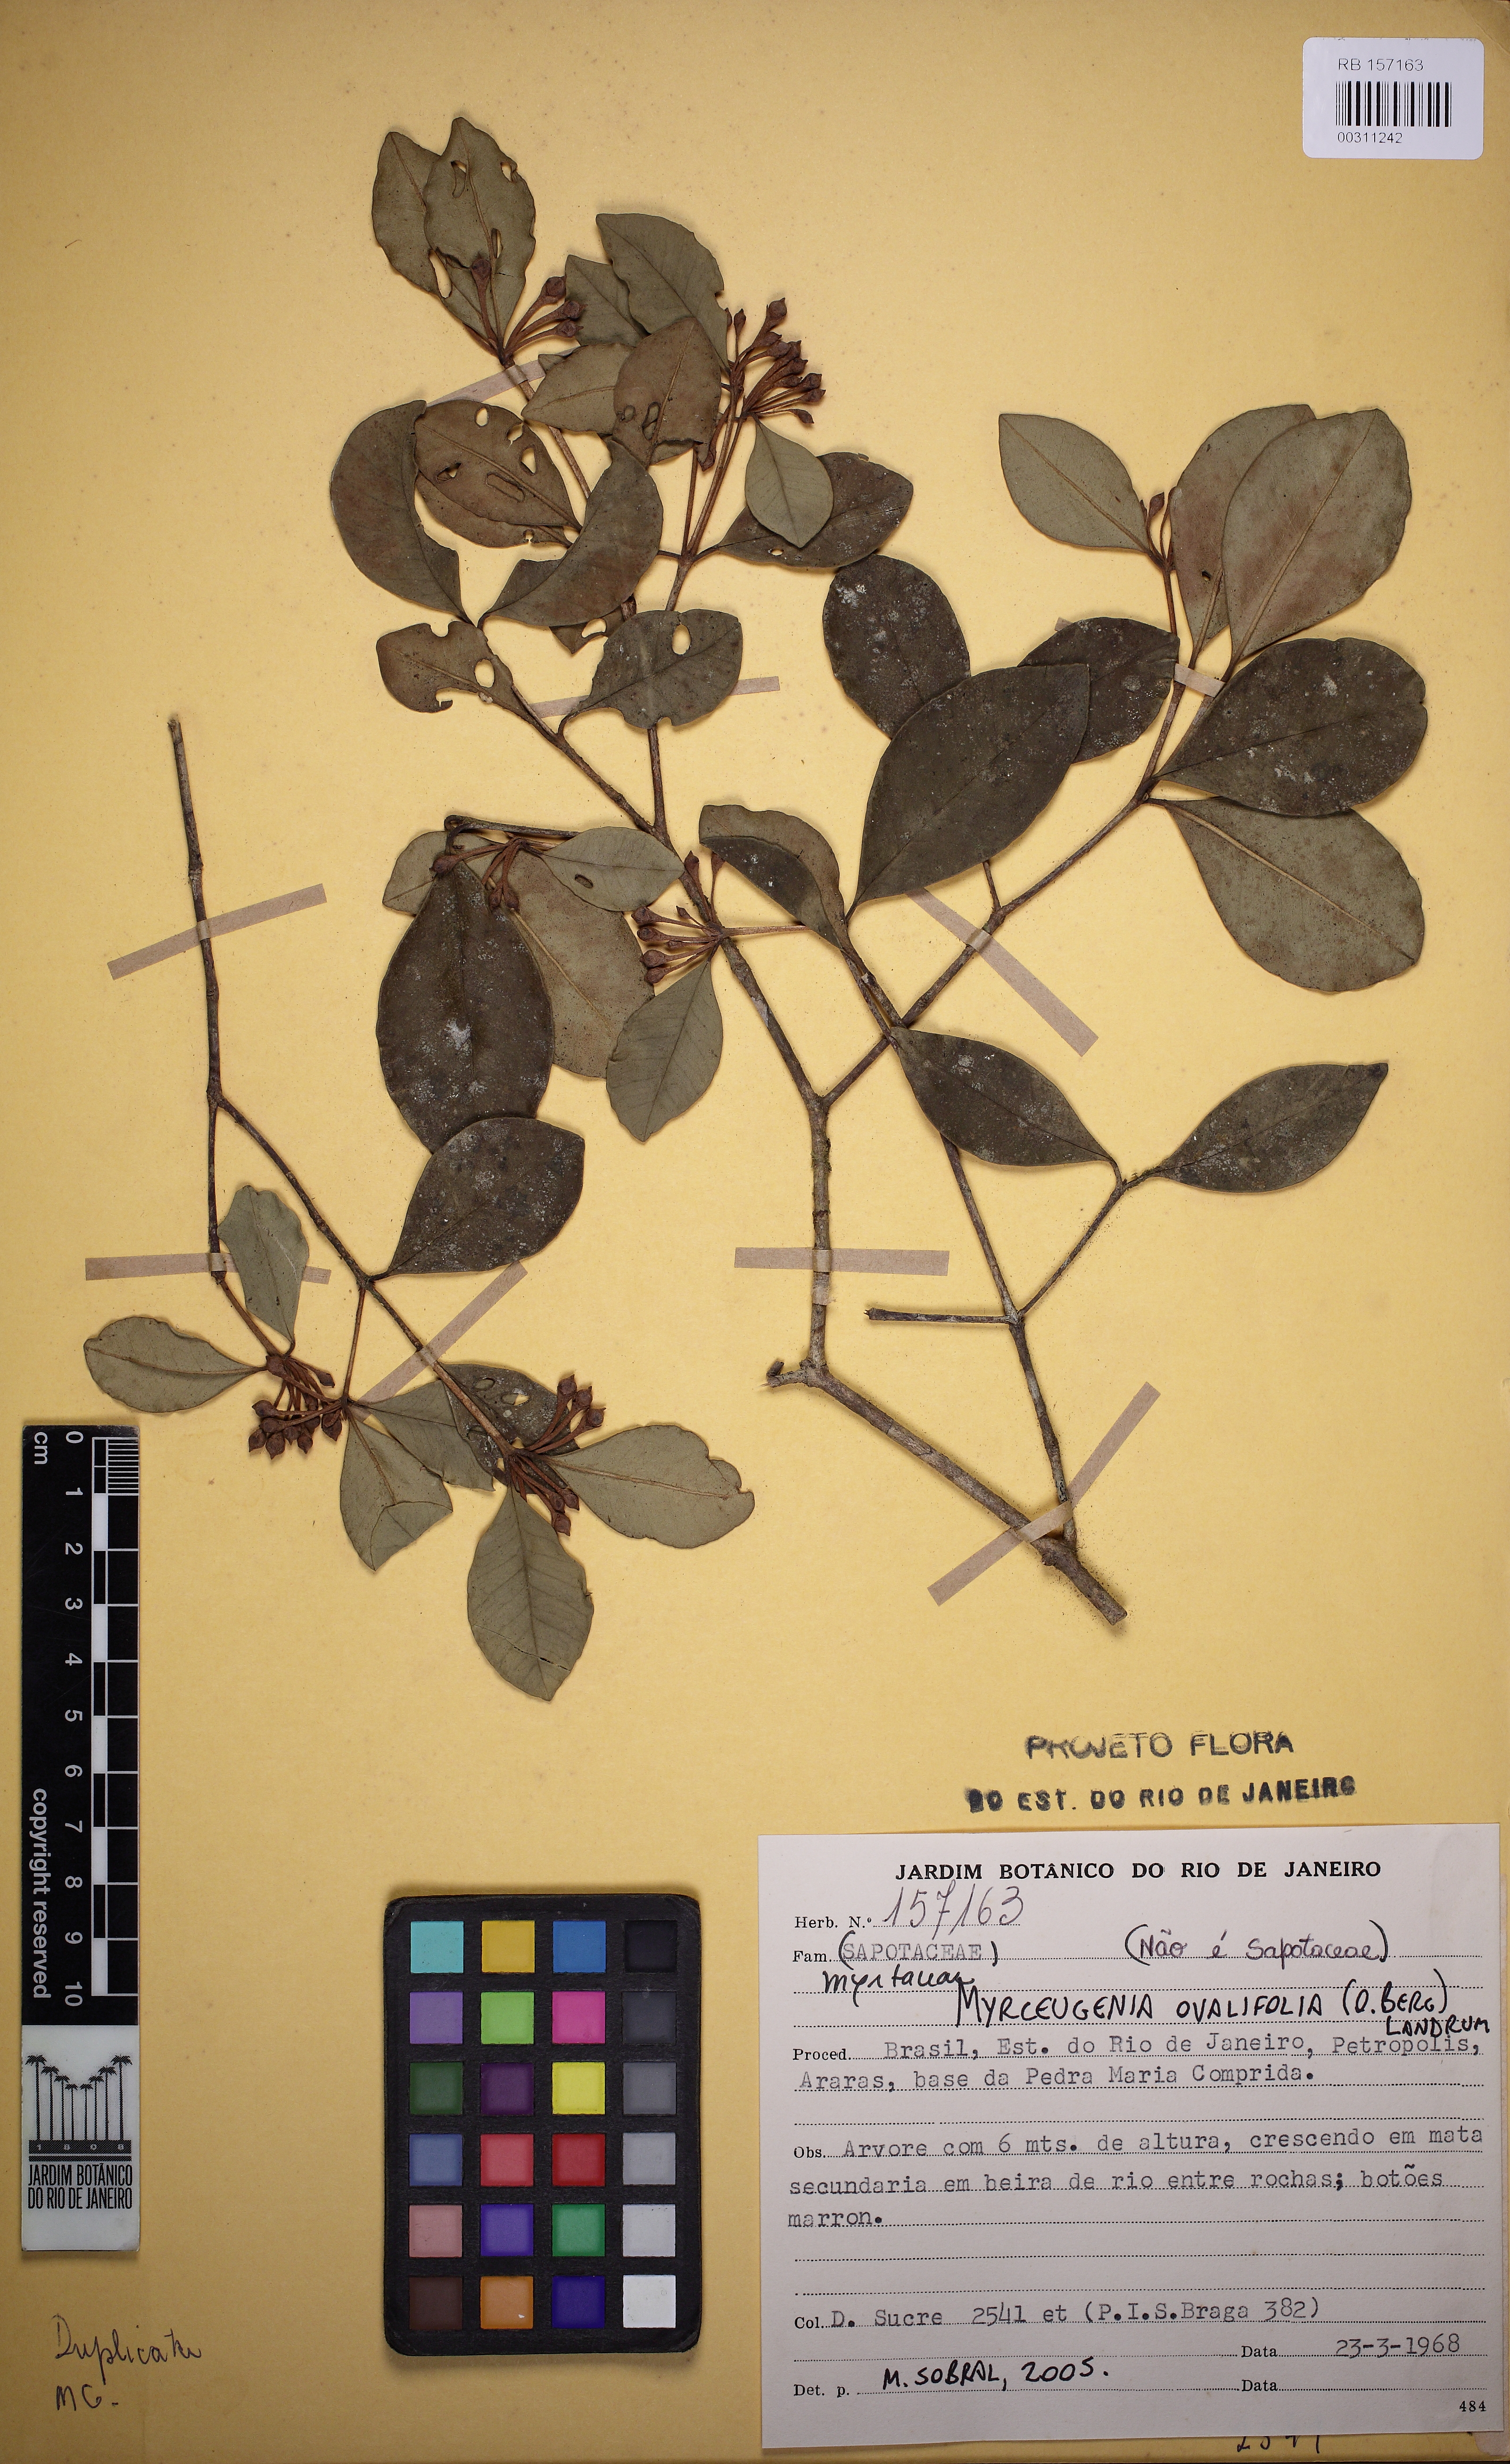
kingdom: Plantae
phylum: Tracheophyta
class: Magnoliopsida
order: Myrtales
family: Myrtaceae
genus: Myrceugenia
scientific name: Myrceugenia ovalifolia
